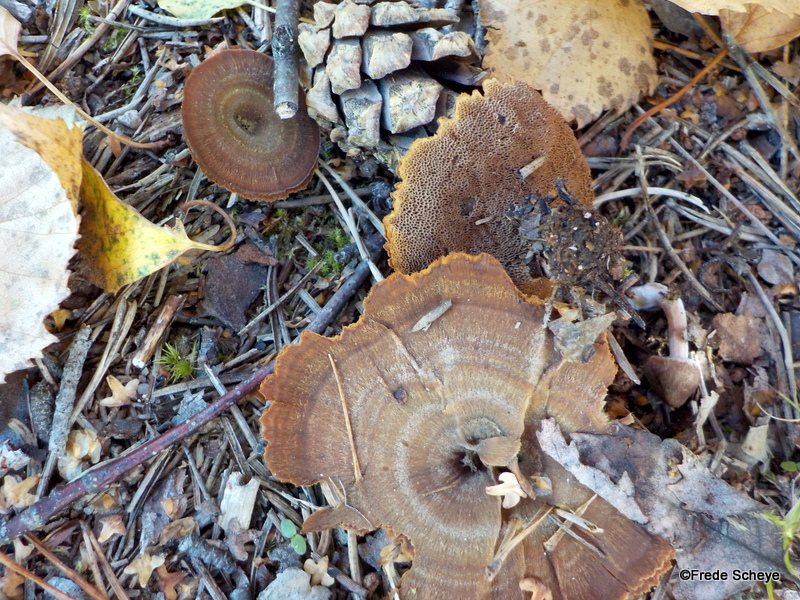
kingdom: Fungi
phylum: Basidiomycota
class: Agaricomycetes
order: Hymenochaetales
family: Hymenochaetaceae
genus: Coltricia
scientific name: Coltricia perennis
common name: almindelig sandporesvamp
